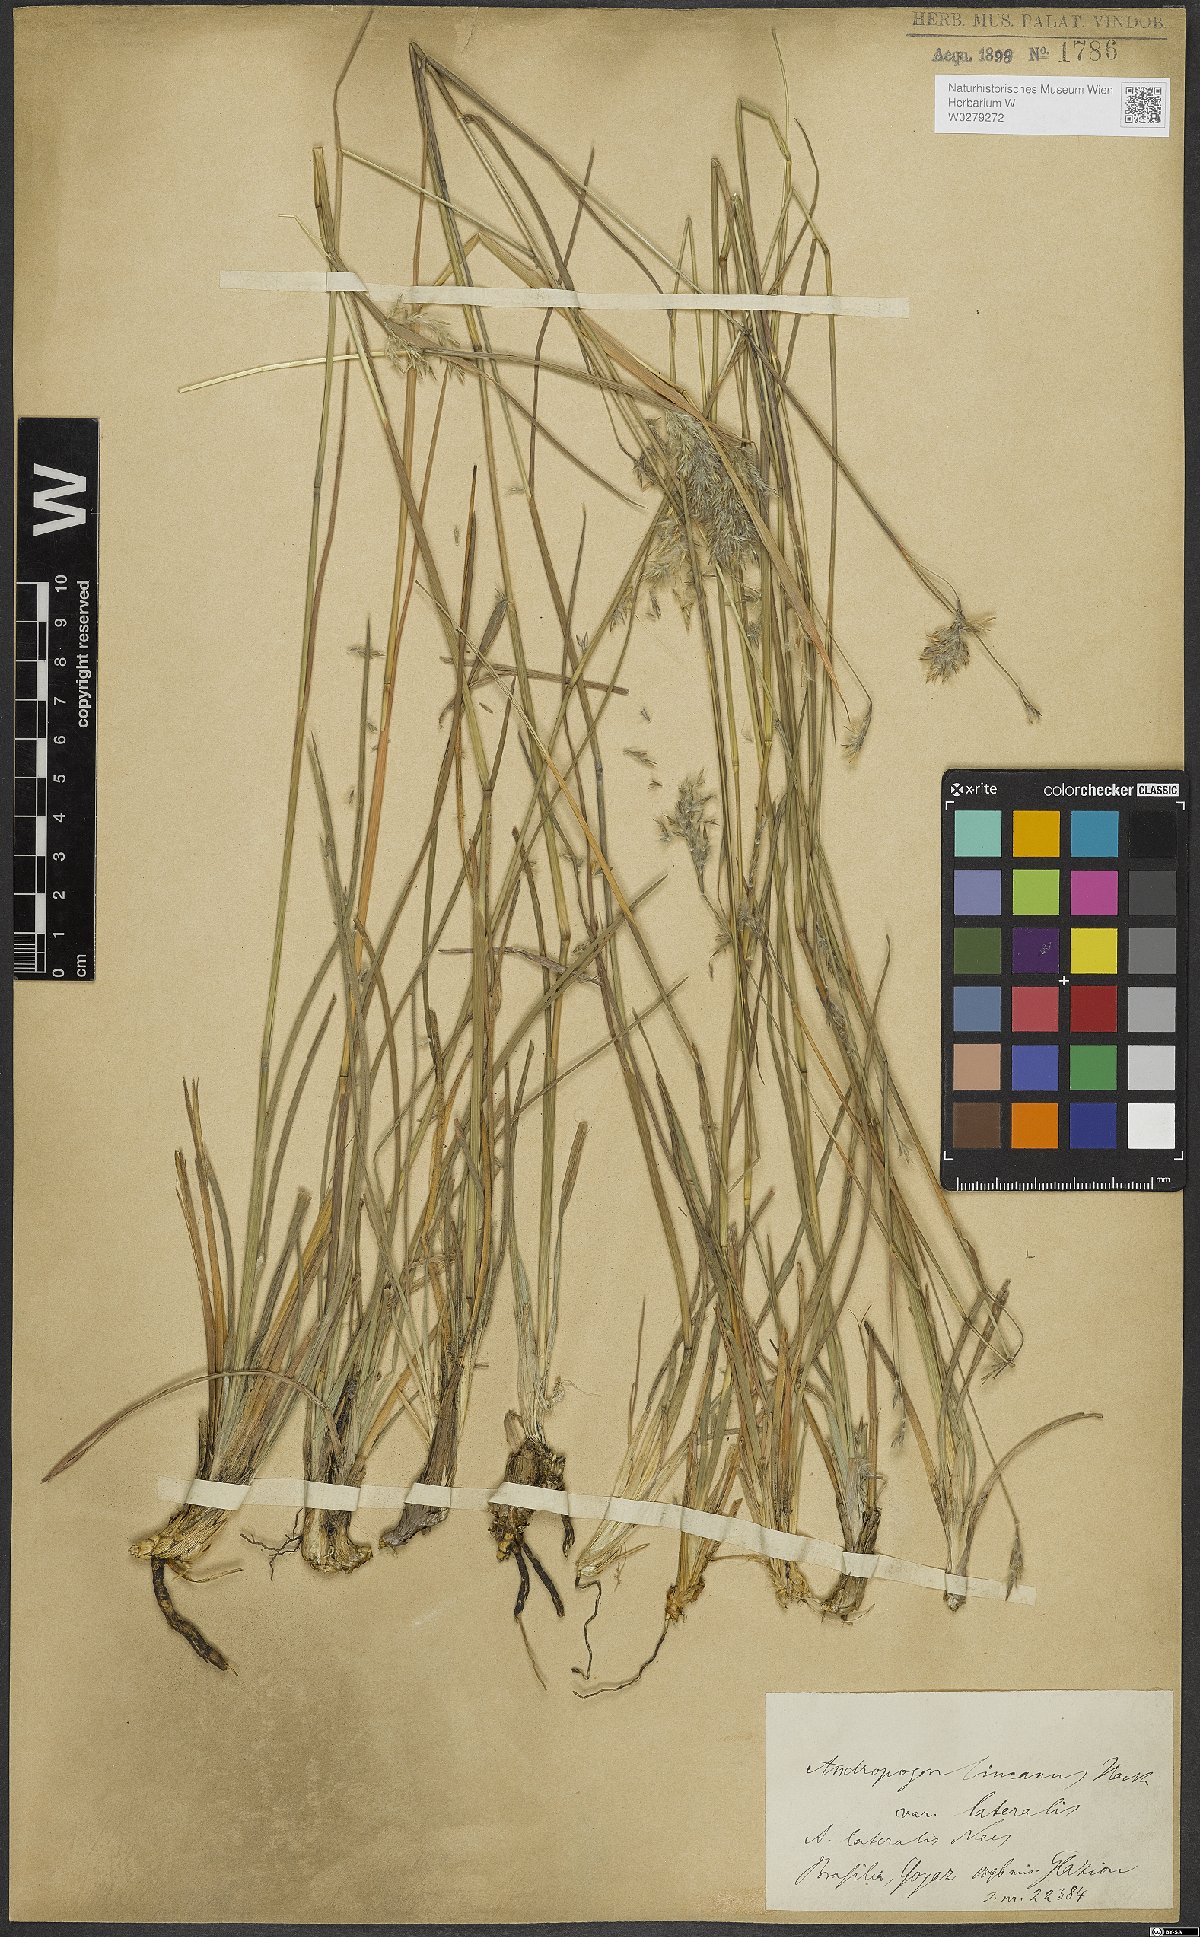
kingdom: Plantae
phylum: Tracheophyta
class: Liliopsida
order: Poales
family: Poaceae
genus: Andropogon
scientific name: Andropogon lateralis
